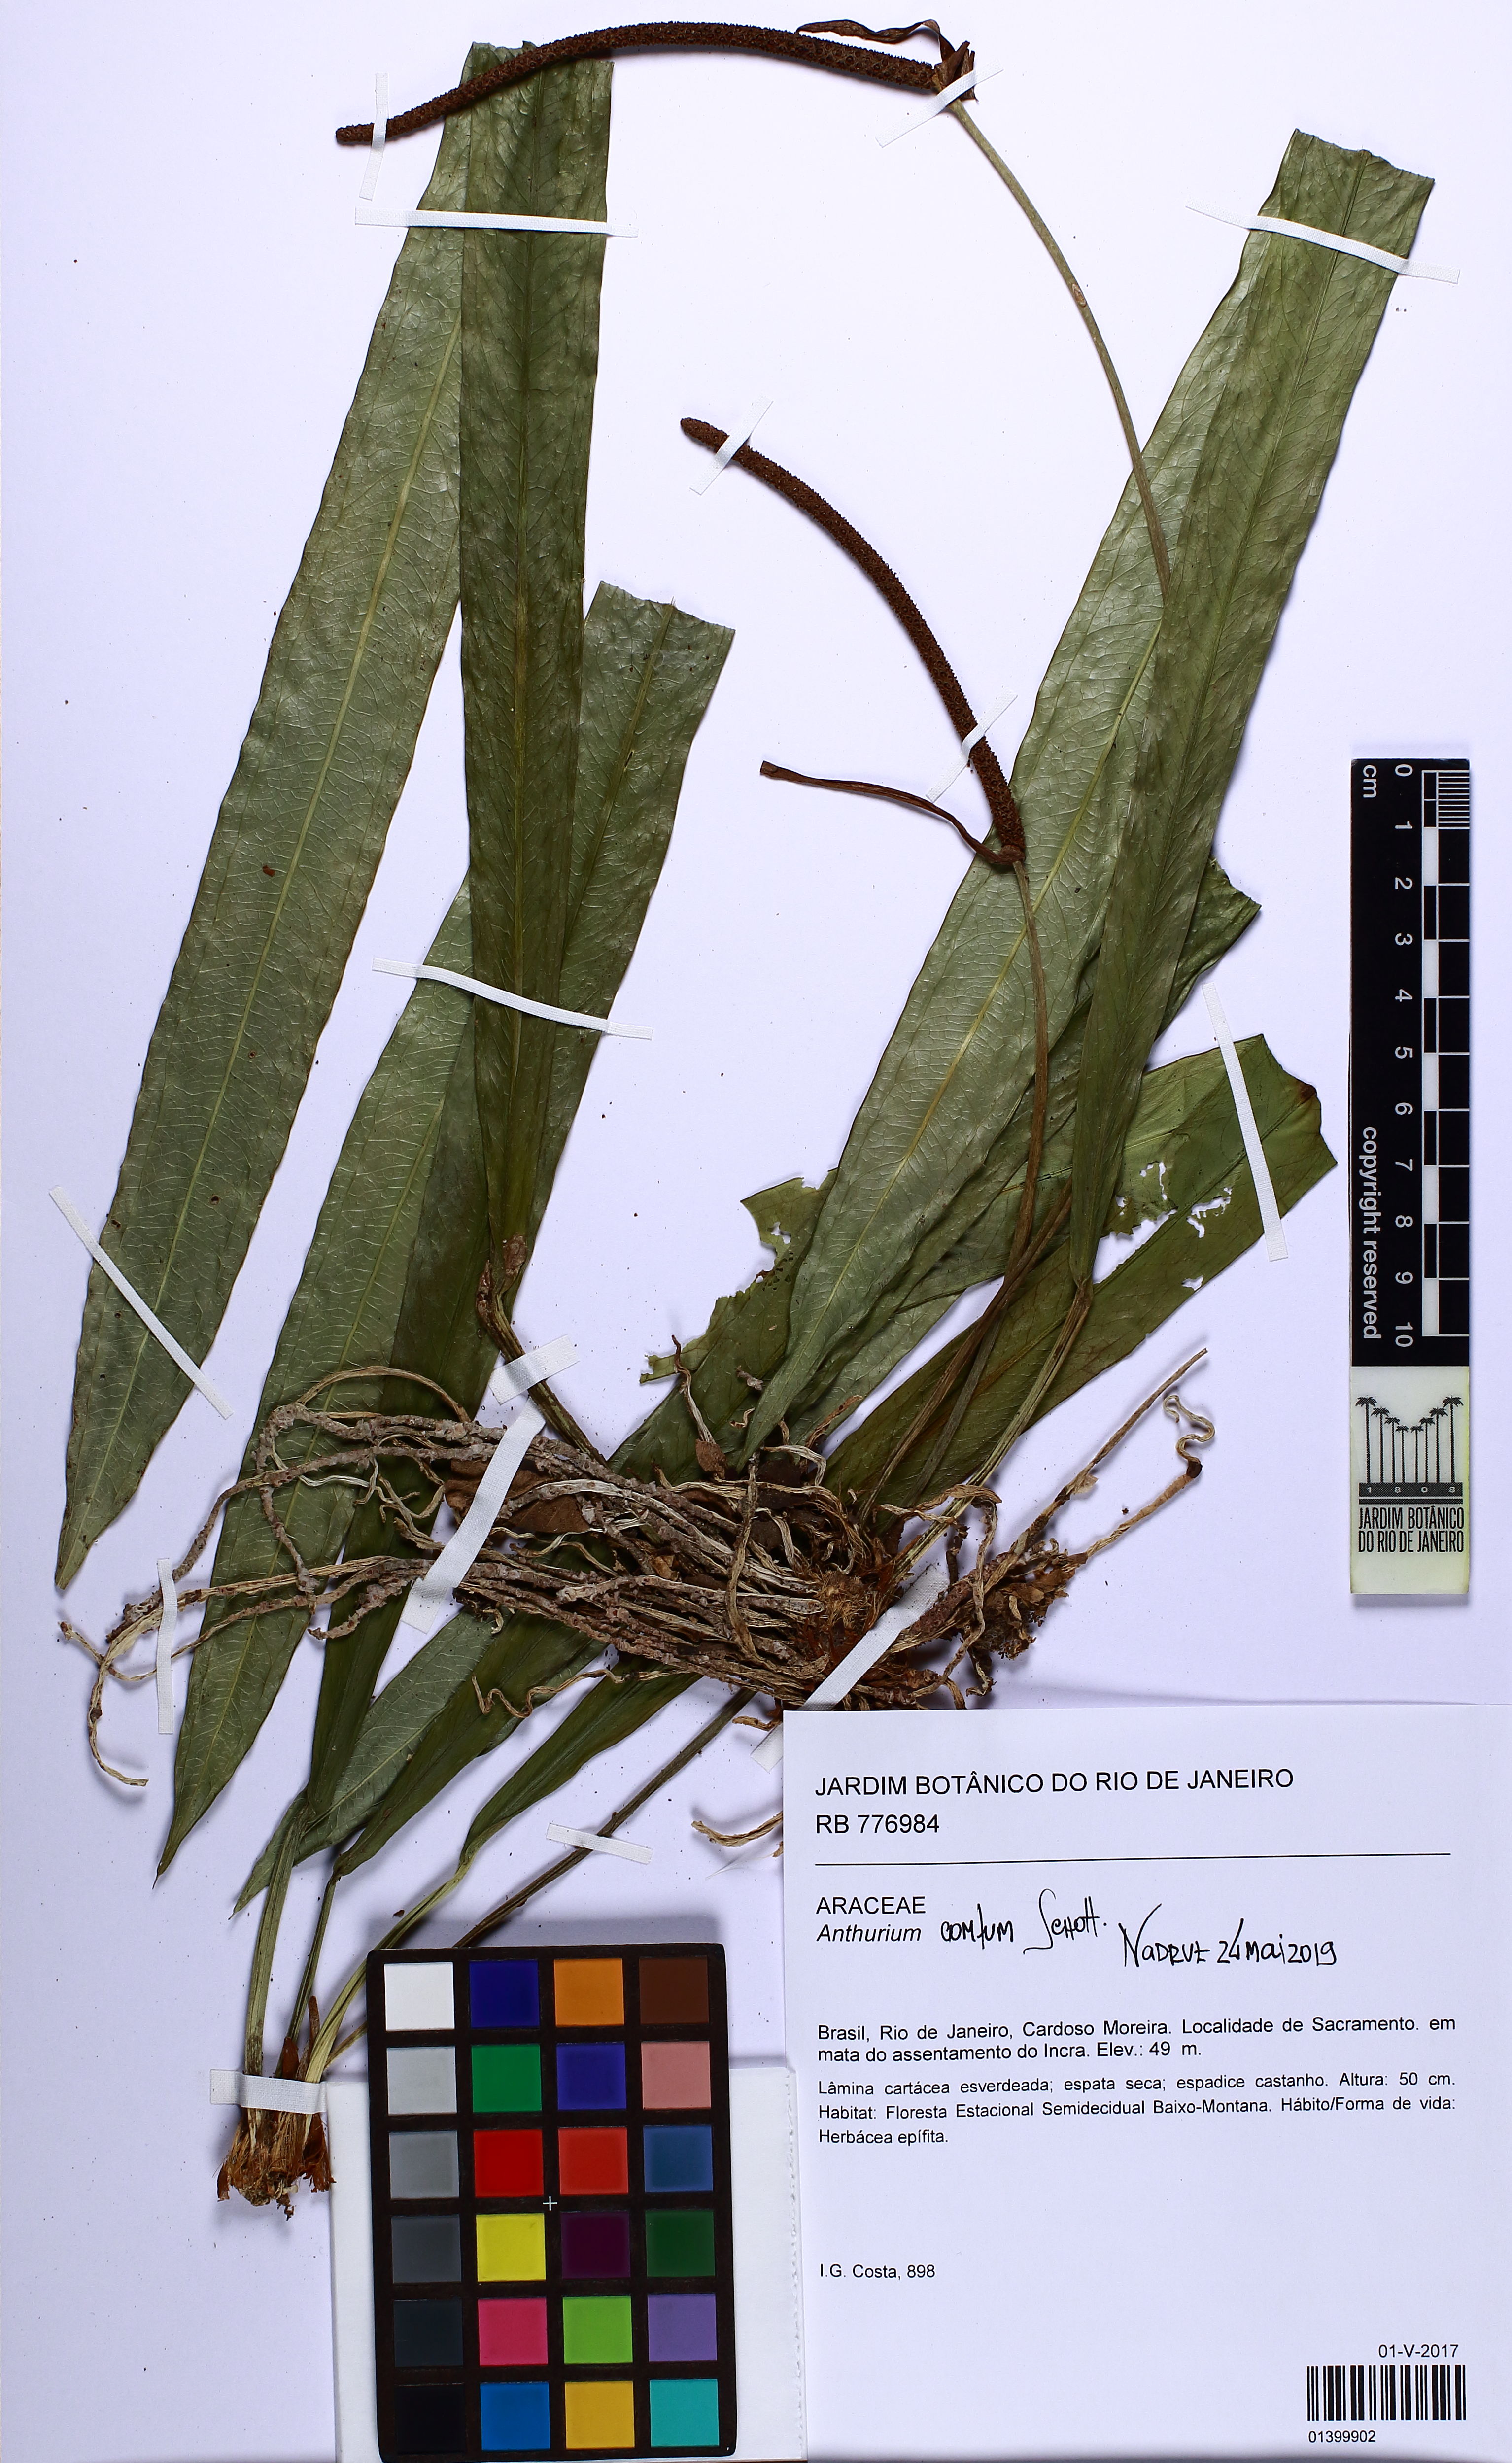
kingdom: Plantae
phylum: Tracheophyta
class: Liliopsida
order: Alismatales
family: Araceae
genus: Anthurium
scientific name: Anthurium comtum
